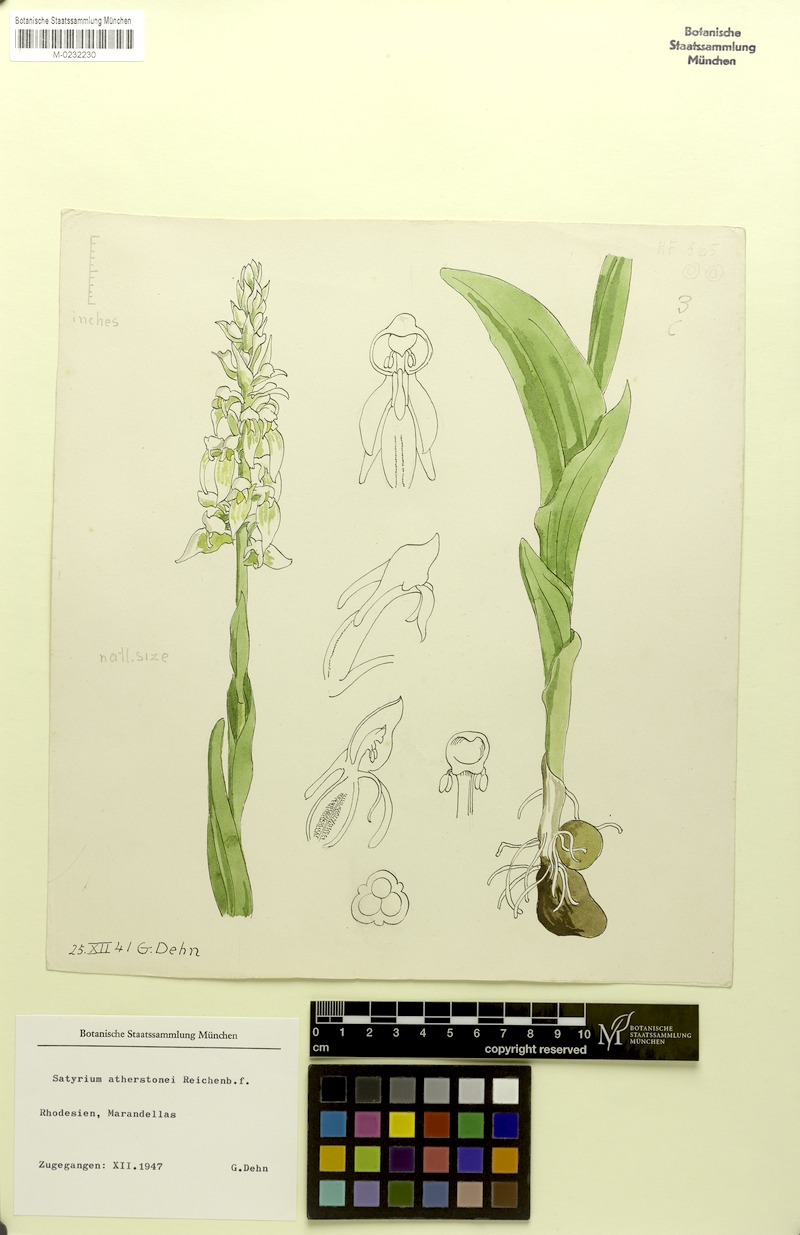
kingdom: Plantae
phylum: Tracheophyta
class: Liliopsida
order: Asparagales
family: Orchidaceae
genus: Satyrium
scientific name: Satyrium trinerve
